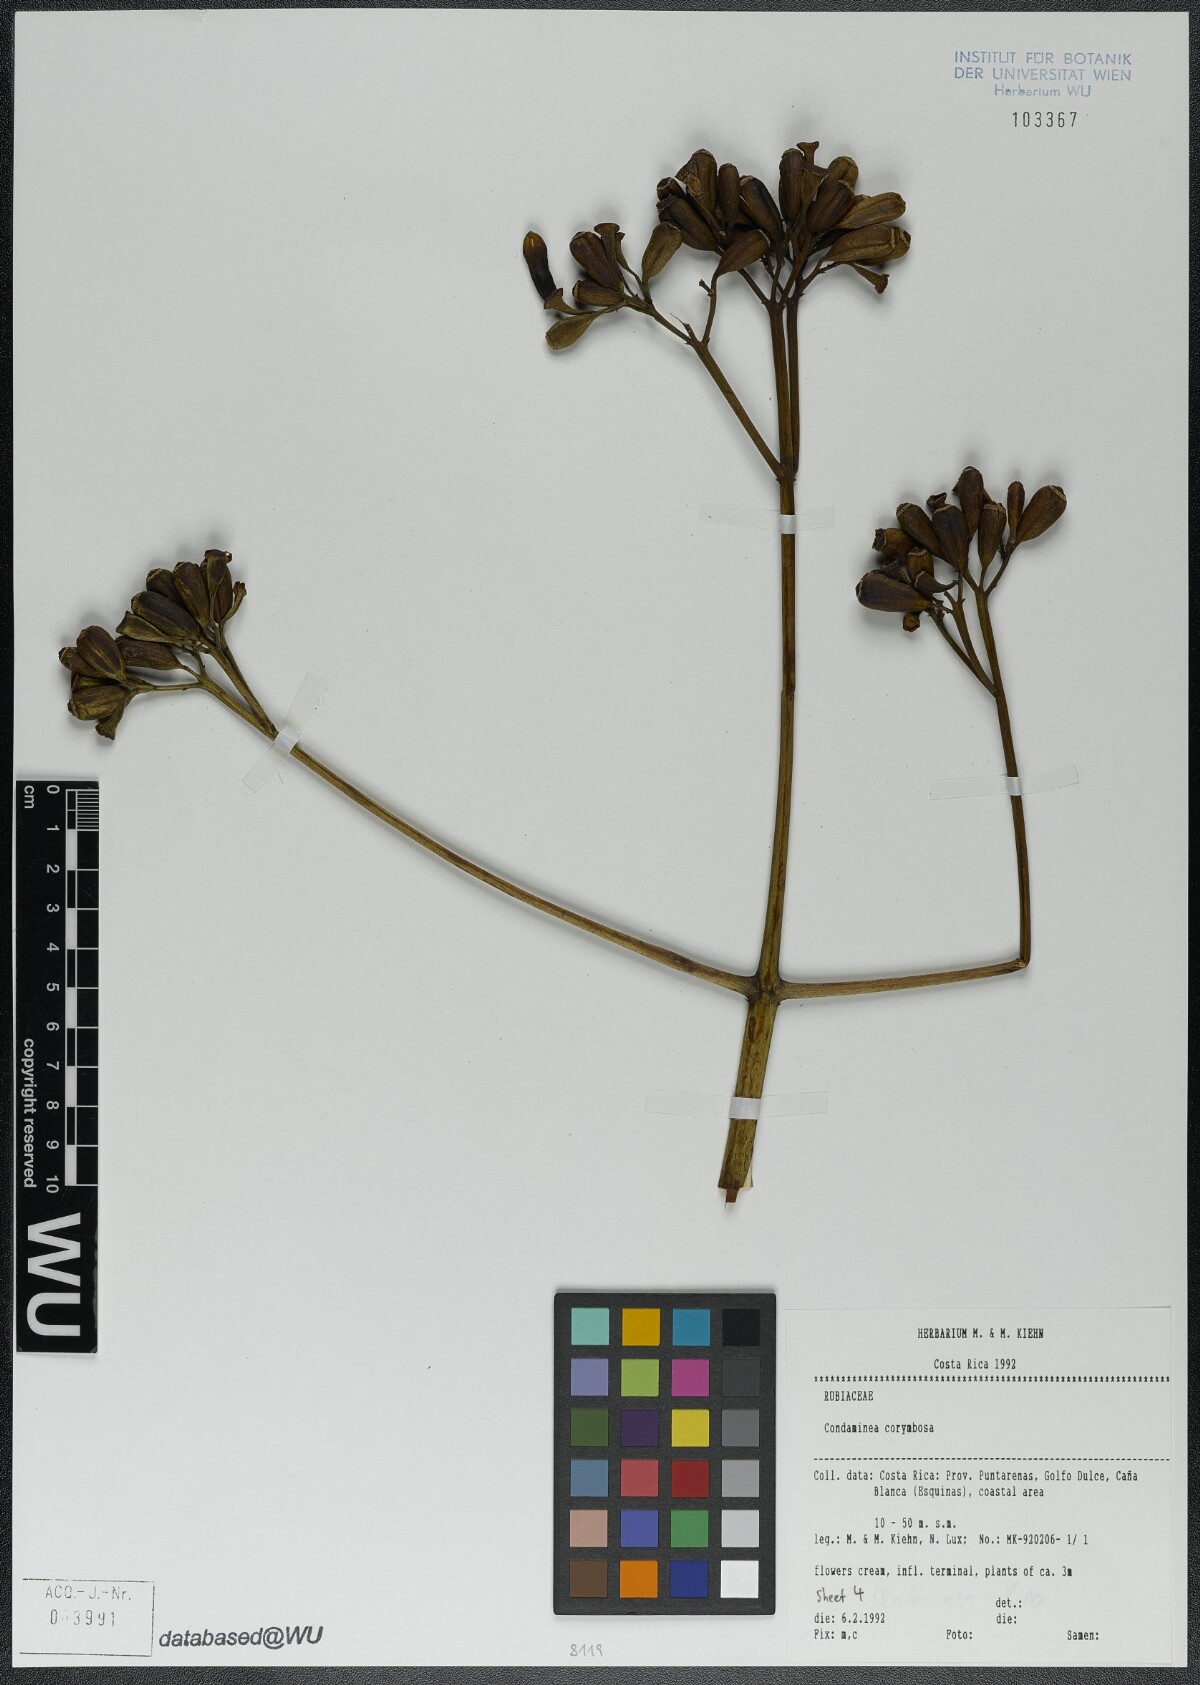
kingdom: Plantae
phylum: Tracheophyta
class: Magnoliopsida
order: Gentianales
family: Rubiaceae
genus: Condaminea
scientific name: Condaminea corymbosa
